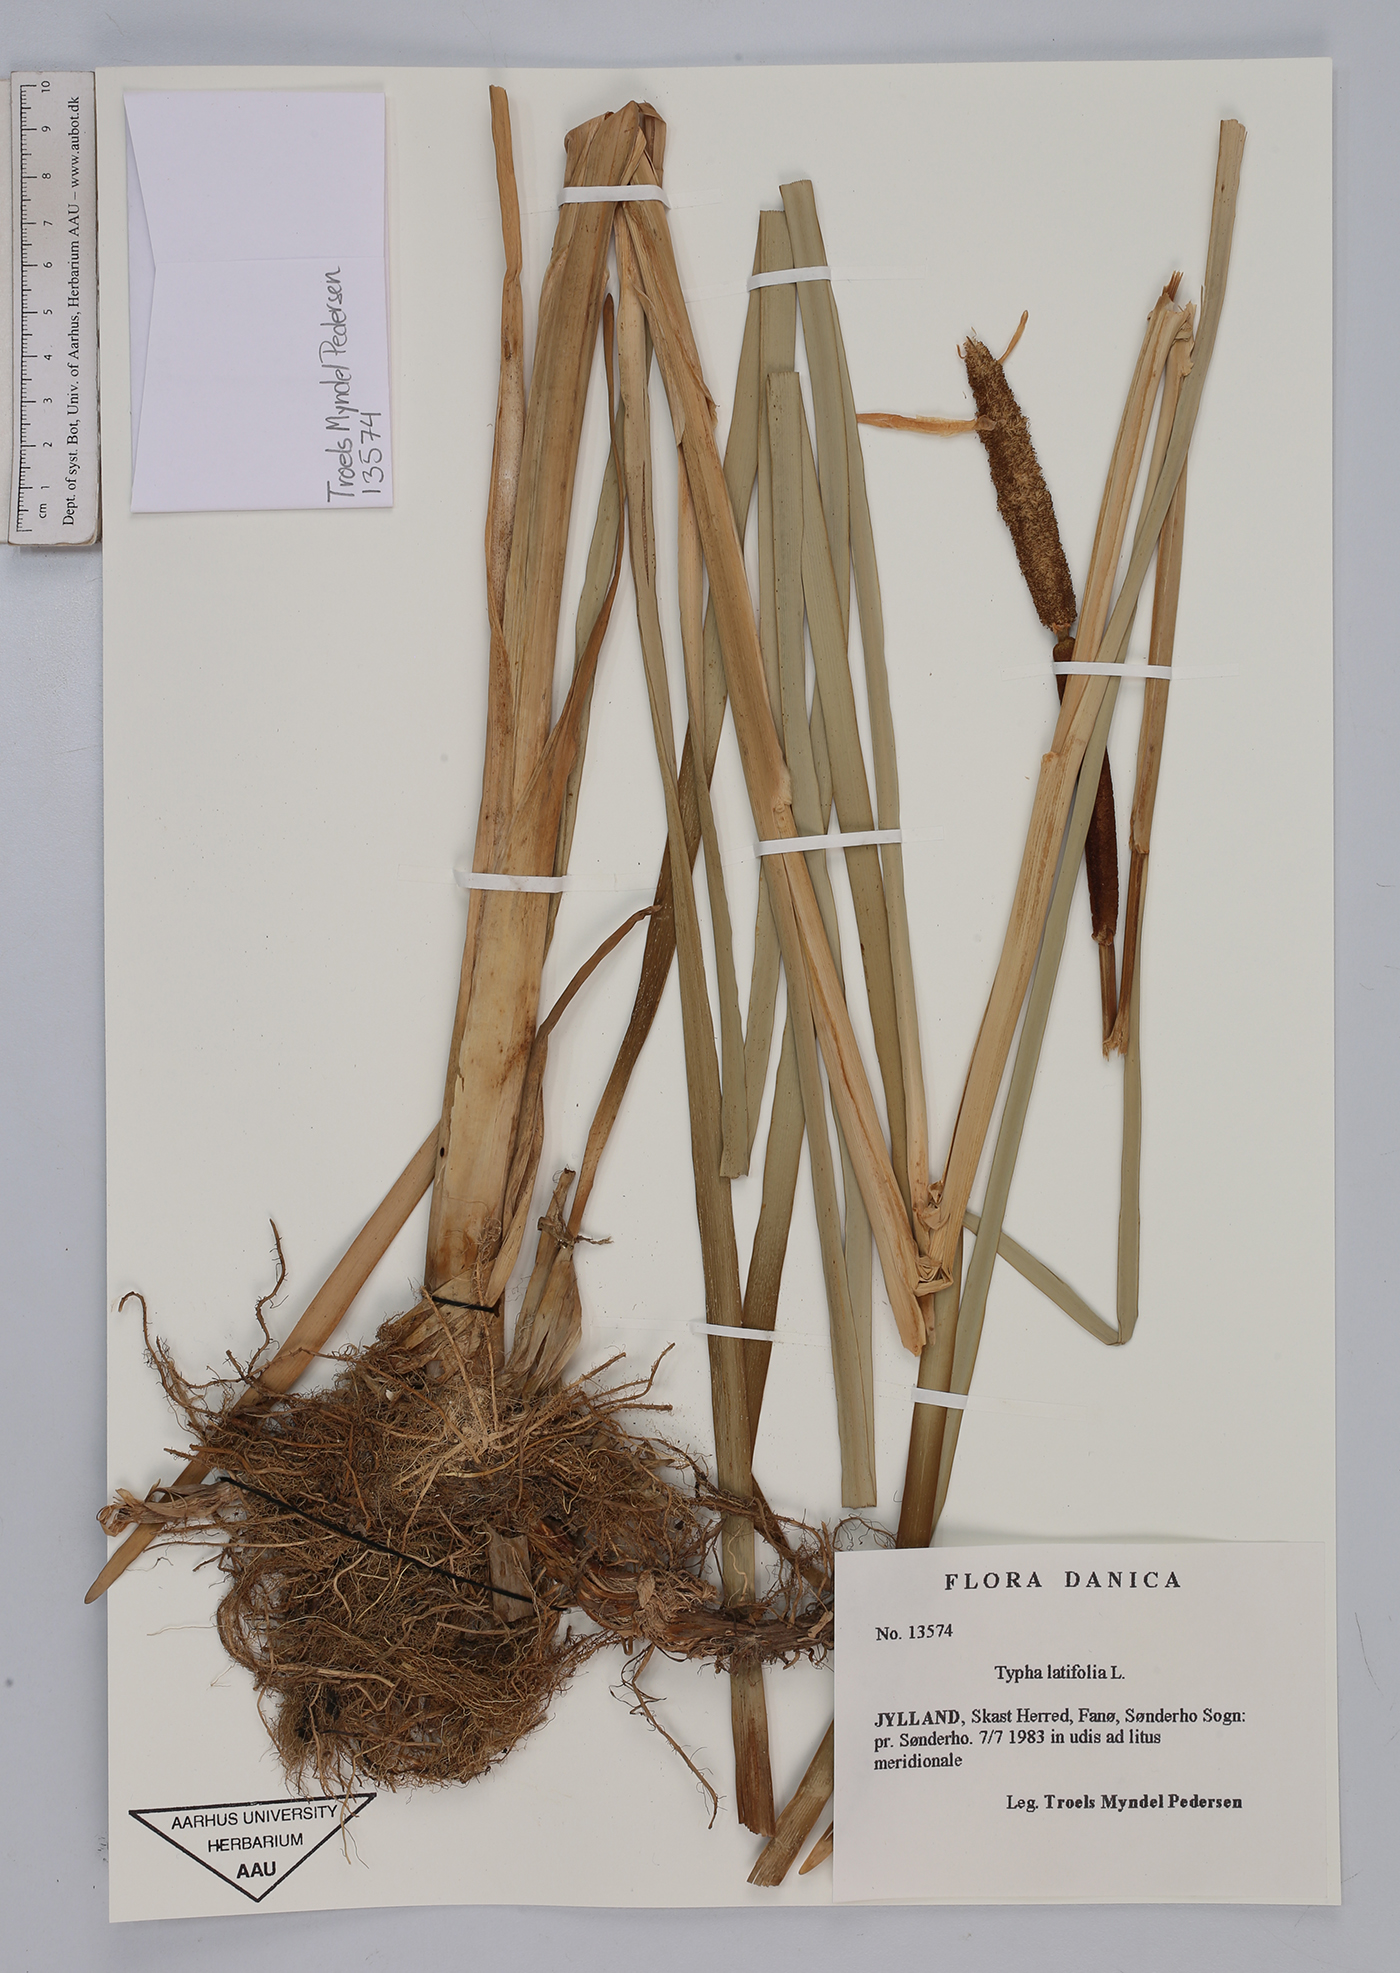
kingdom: Plantae
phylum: Tracheophyta
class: Liliopsida
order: Poales
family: Typhaceae
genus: Typha
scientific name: Typha latifolia
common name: Broadleaf cattail
